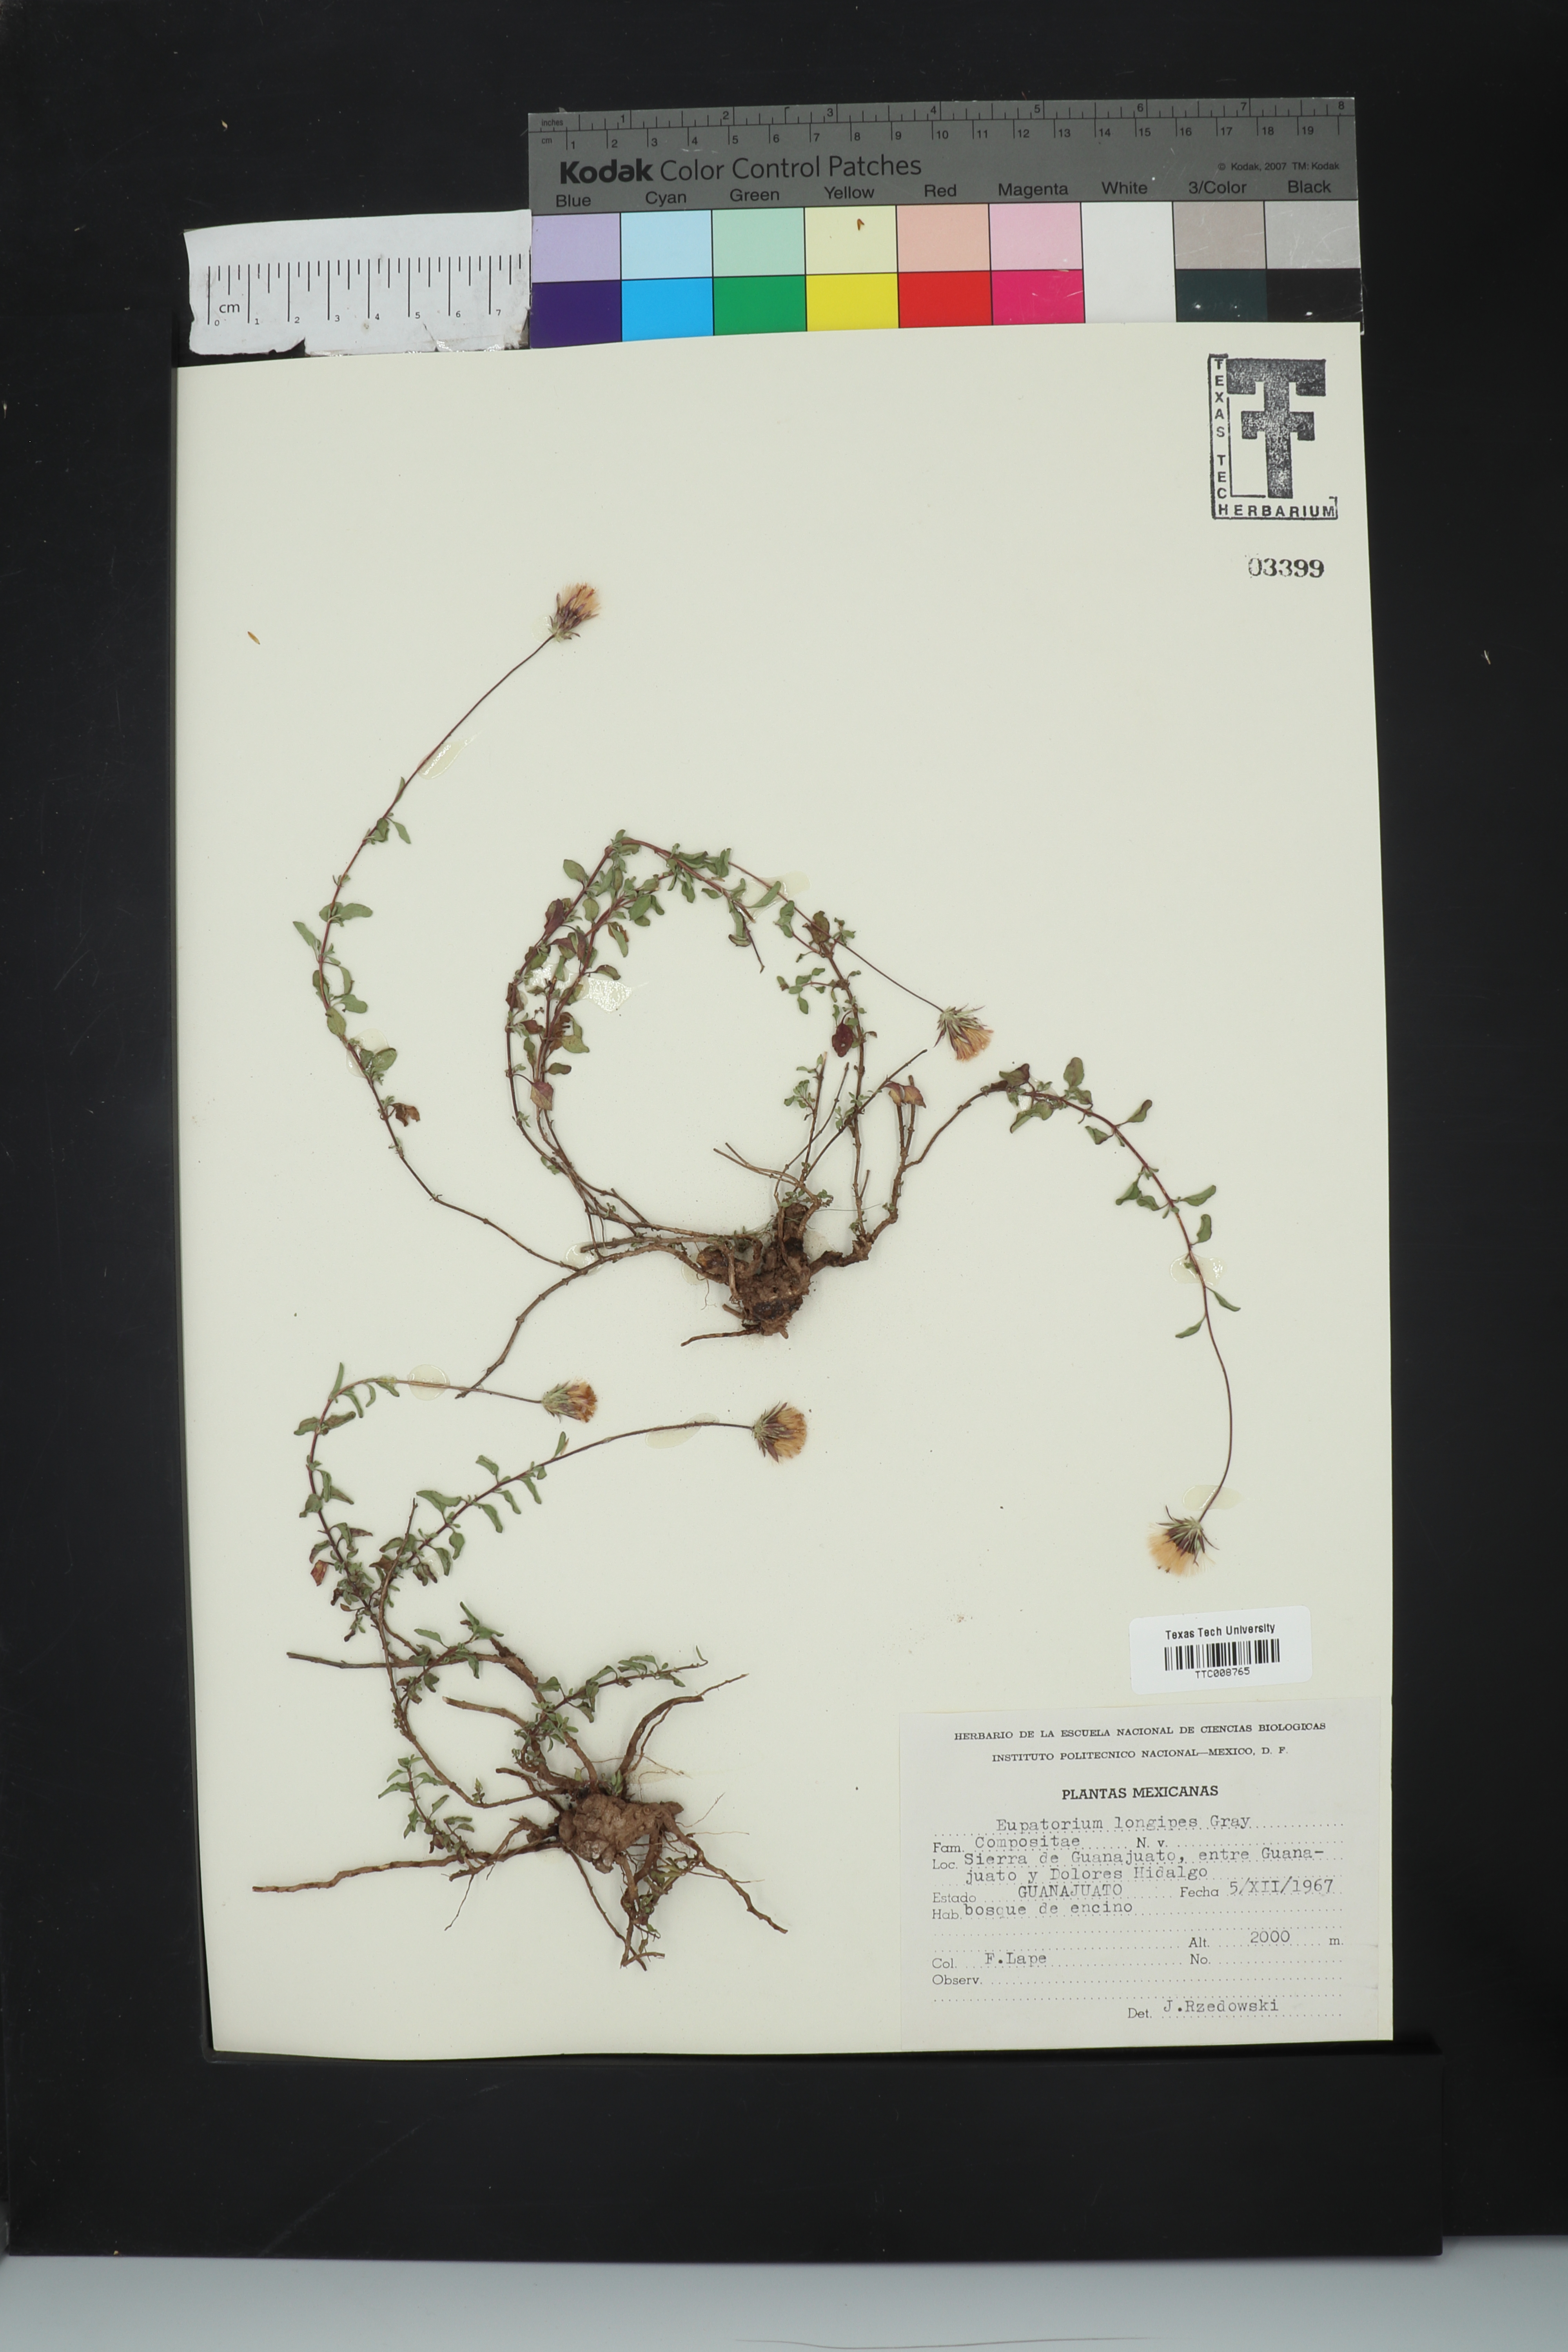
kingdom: Plantae
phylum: Tracheophyta
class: Magnoliopsida
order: Asterales
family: Asteraceae
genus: Brickellia
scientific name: Brickellia pedunculosa
